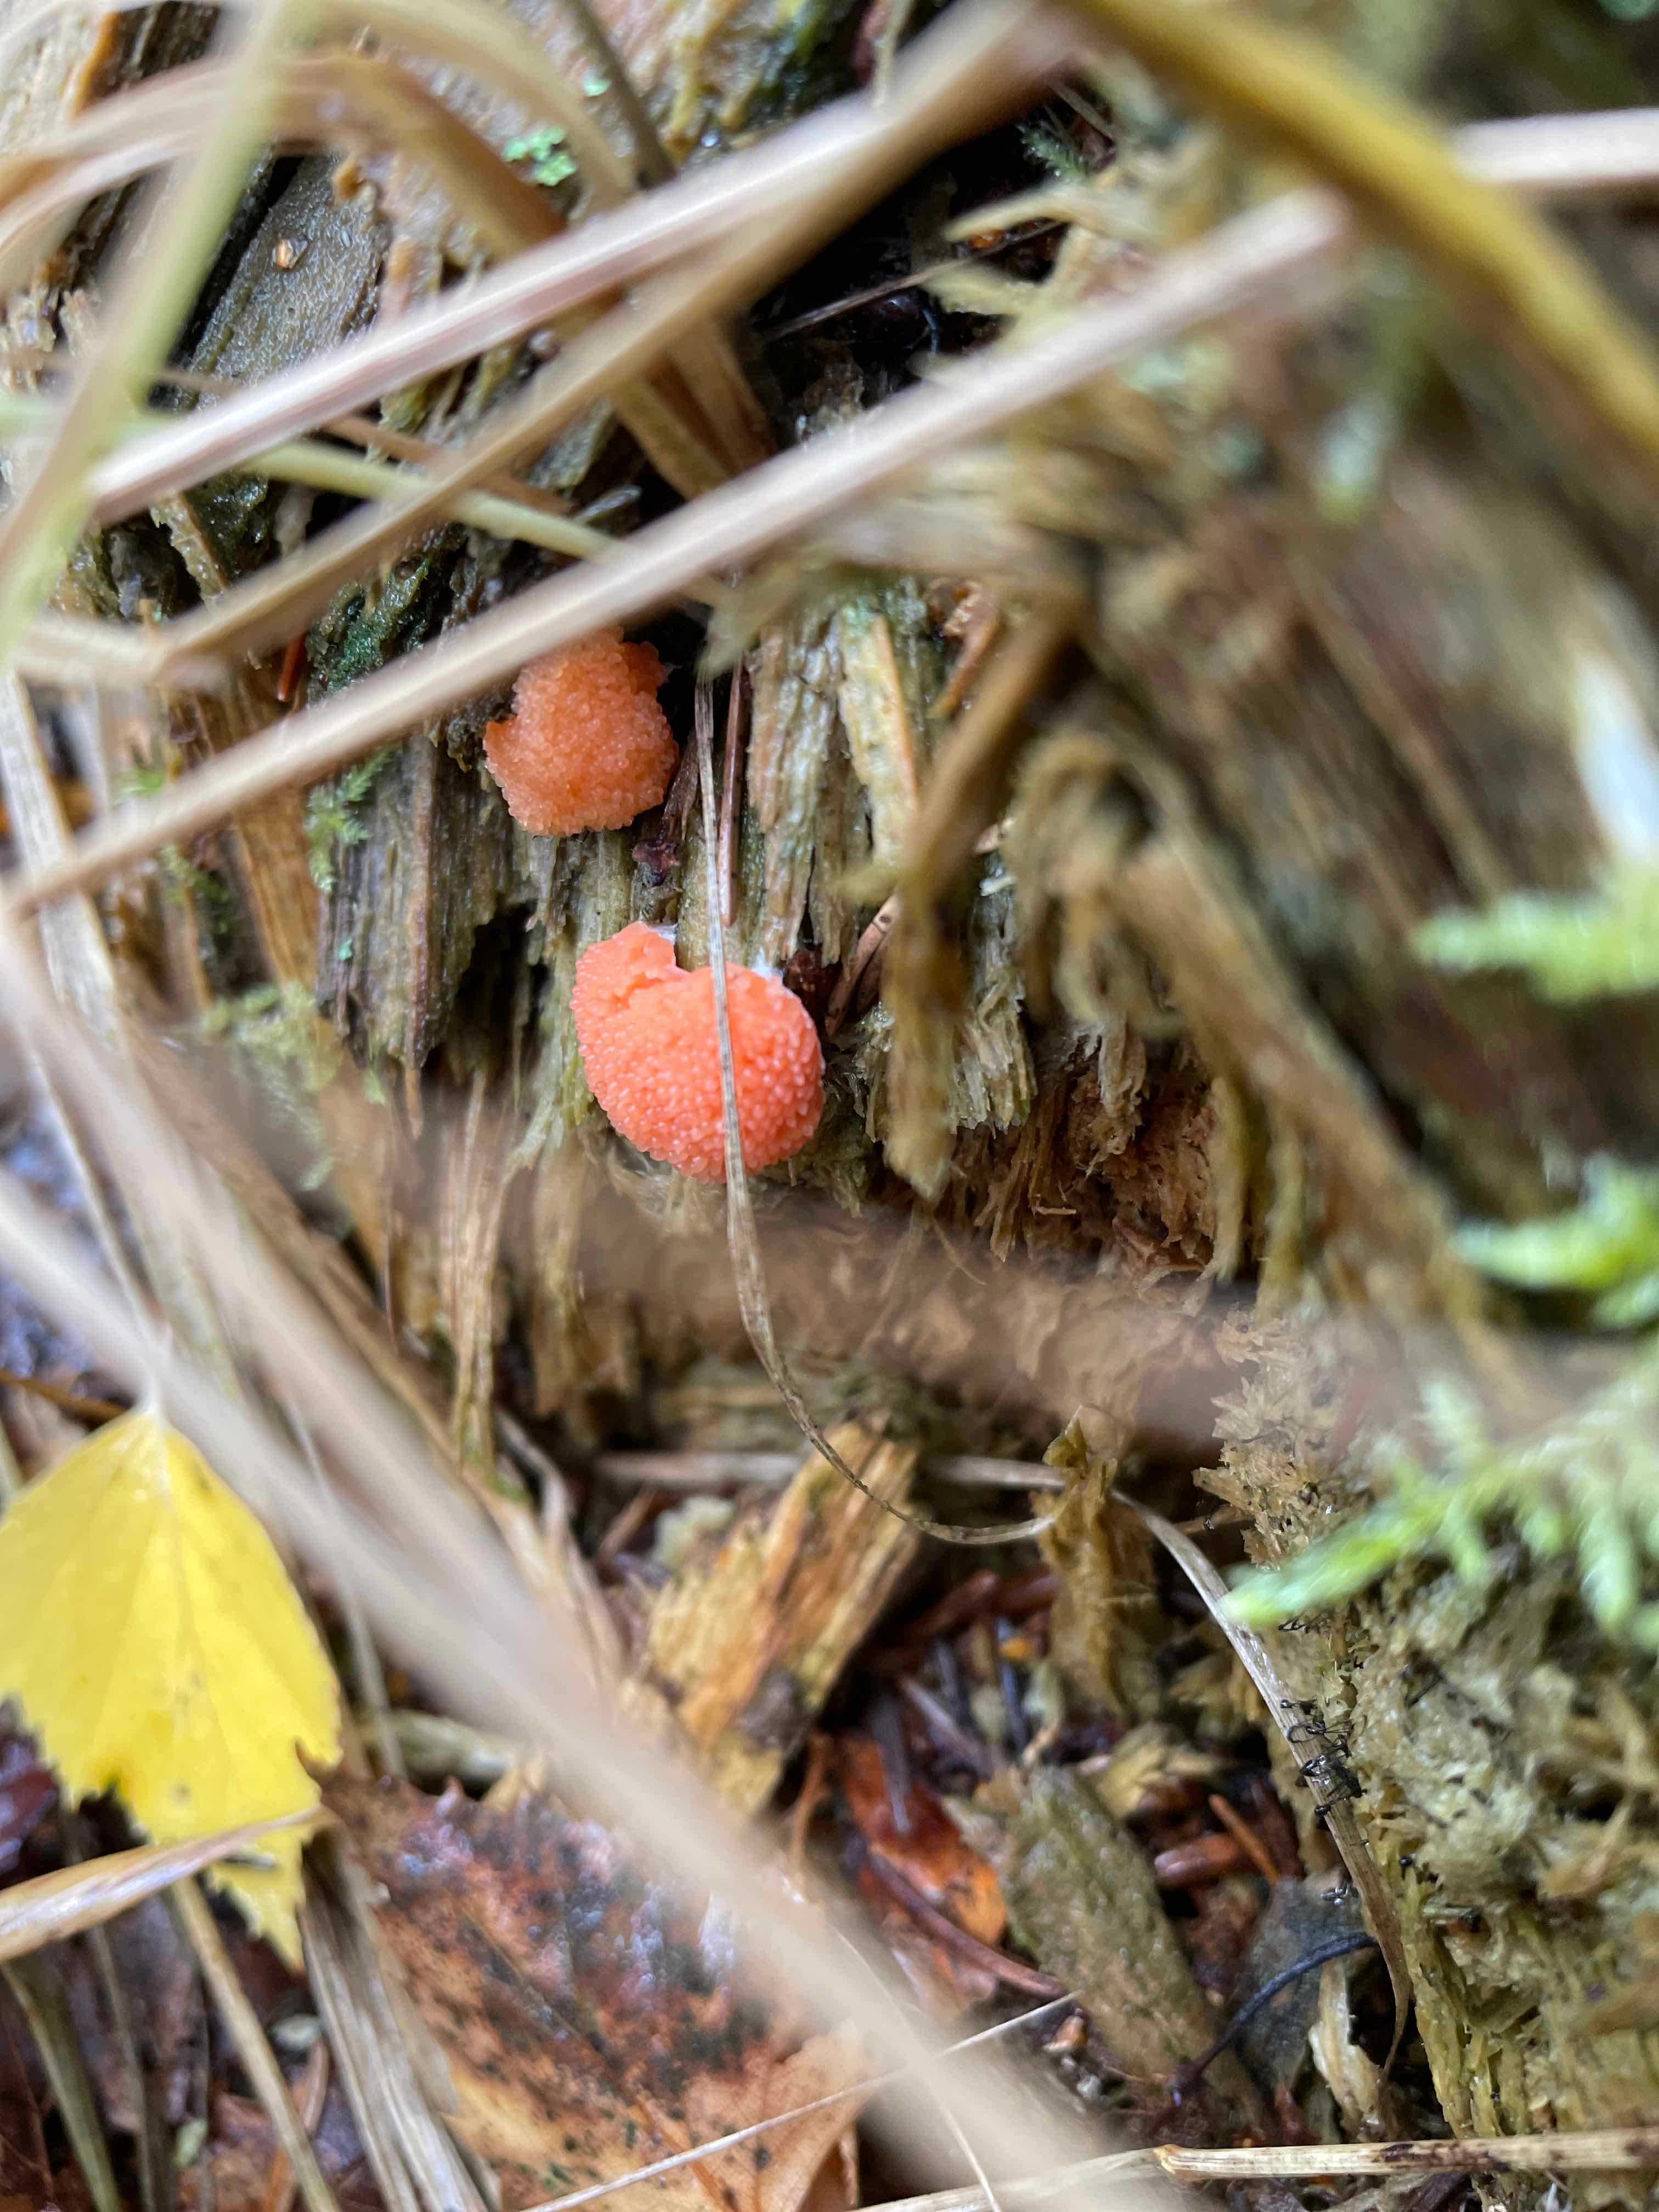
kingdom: Protozoa
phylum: Mycetozoa
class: Myxomycetes
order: Cribrariales
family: Tubiferaceae
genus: Tubifera
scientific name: Tubifera ferruginosa
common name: kanel-støvrør
